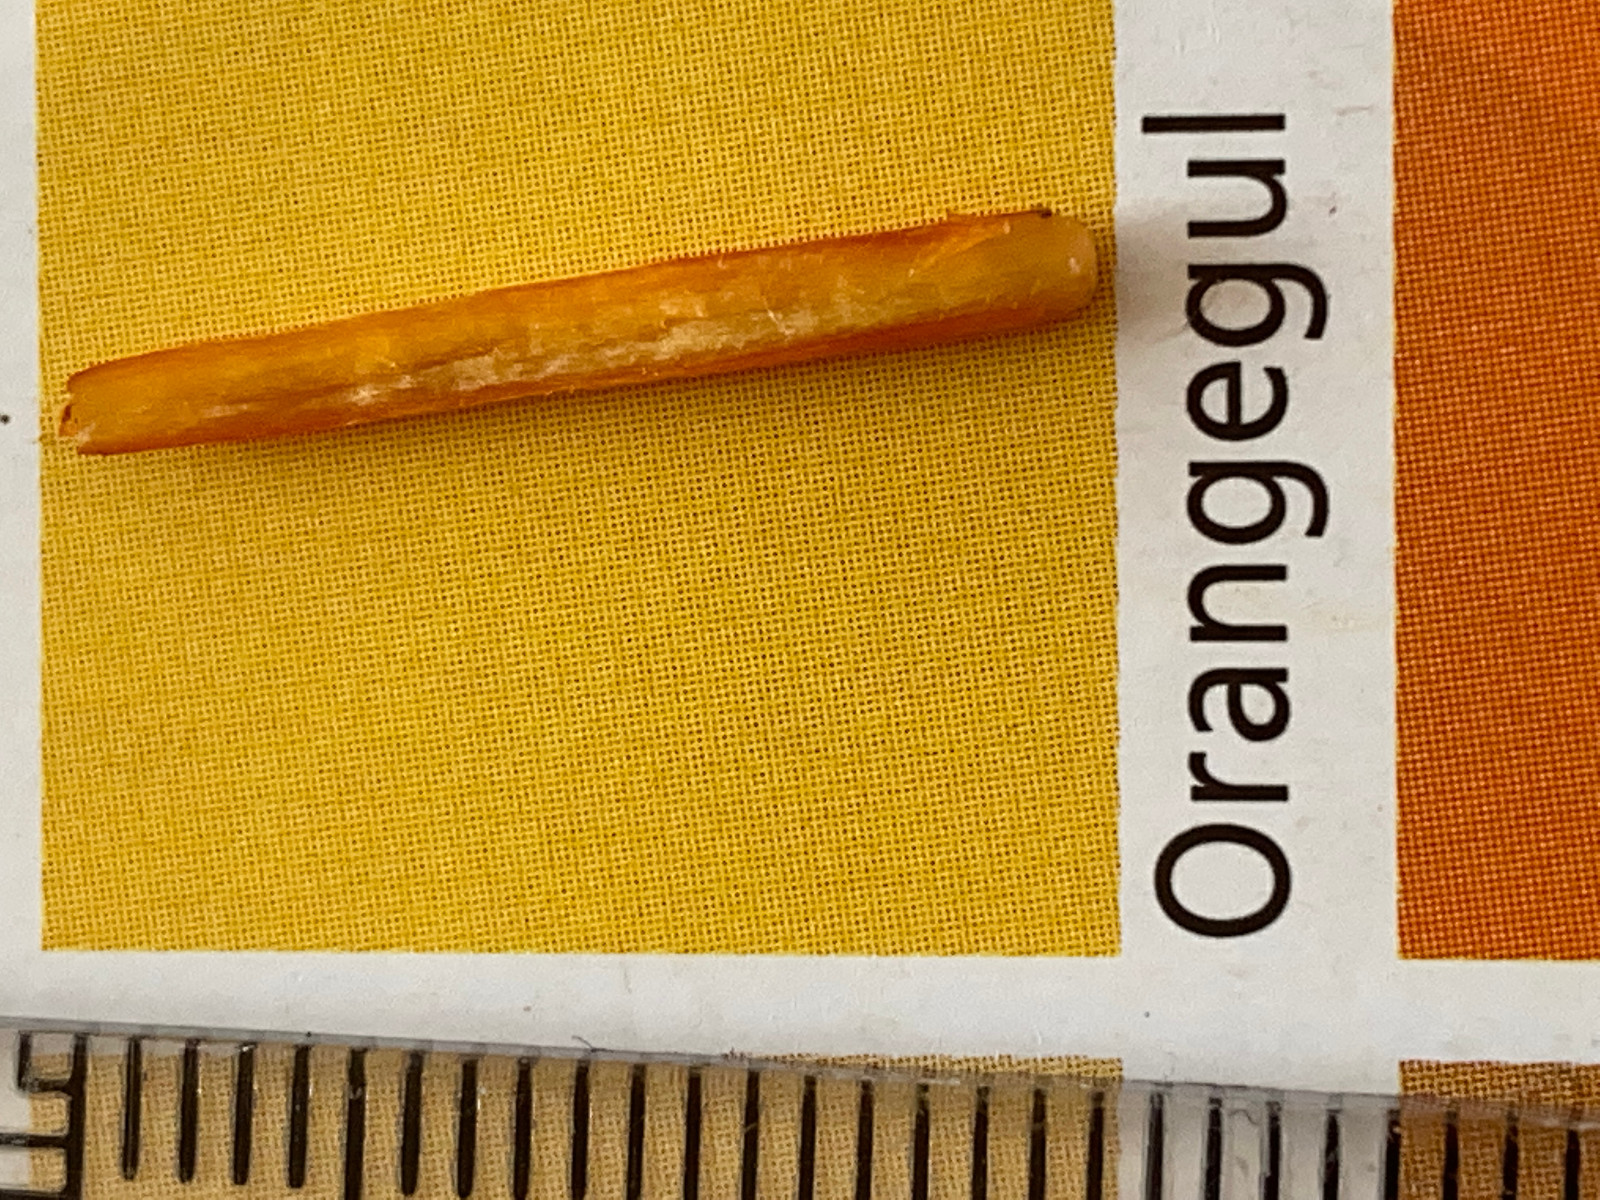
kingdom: Fungi
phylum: Basidiomycota
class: Agaricomycetes
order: Agaricales
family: Hygrophoraceae
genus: Hygrocybe
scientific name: Hygrocybe miniata
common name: mønje-vokshat
